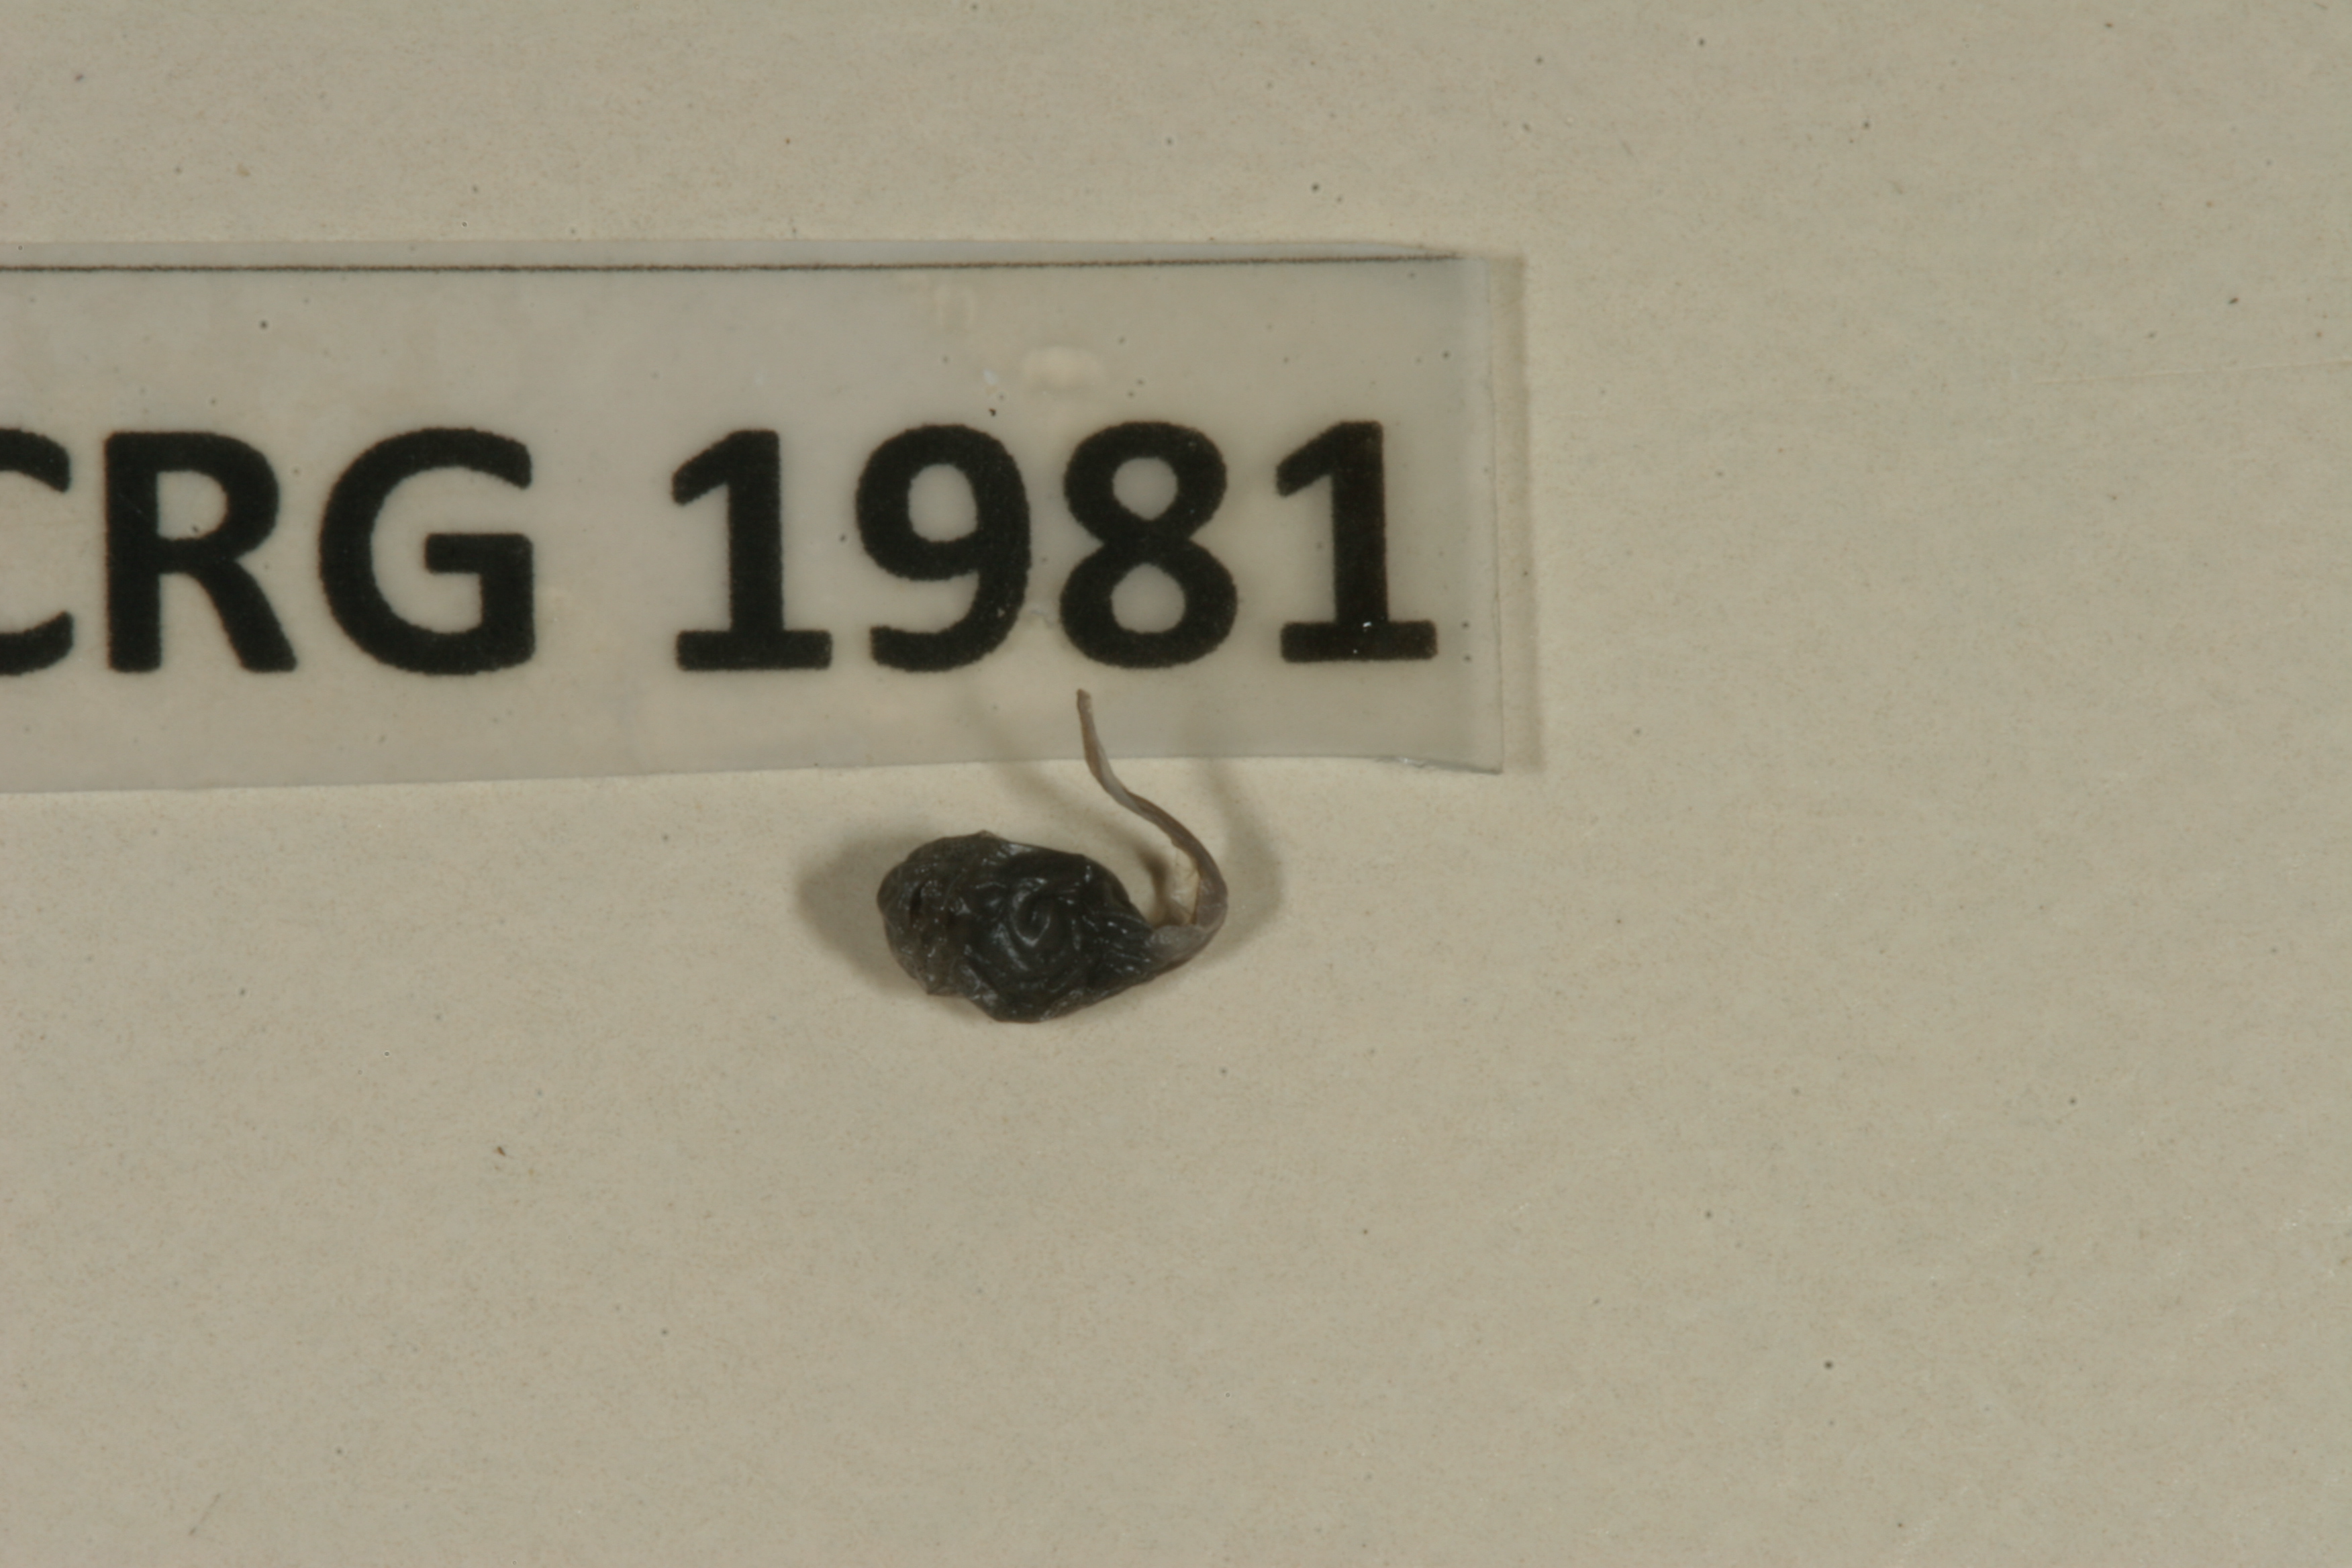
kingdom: Animalia
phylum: Chordata
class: Amphibia
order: Anura
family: Bufonidae
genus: Sclerophrys
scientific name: Sclerophrys gutturalis
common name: African common toad
